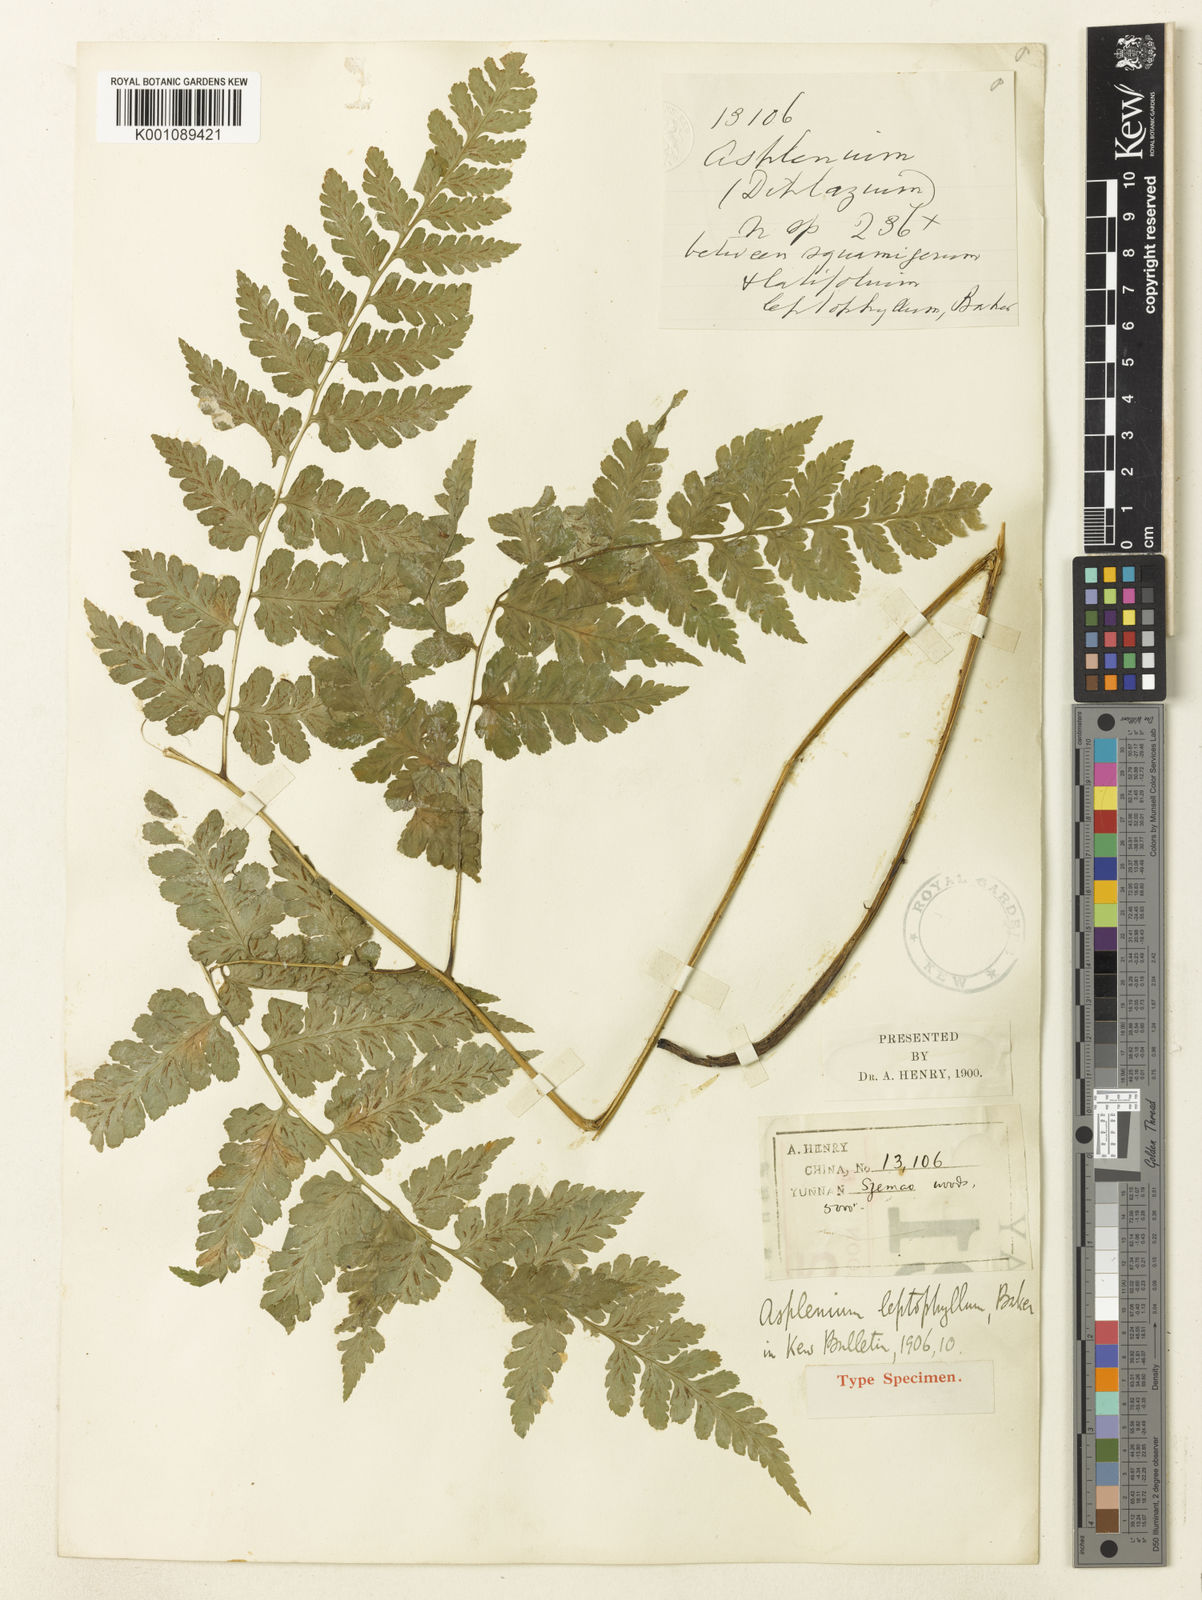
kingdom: Plantae
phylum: Tracheophyta
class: Polypodiopsida
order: Polypodiales
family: Athyriaceae
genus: Diplazium
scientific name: Diplazium leptophyllum
